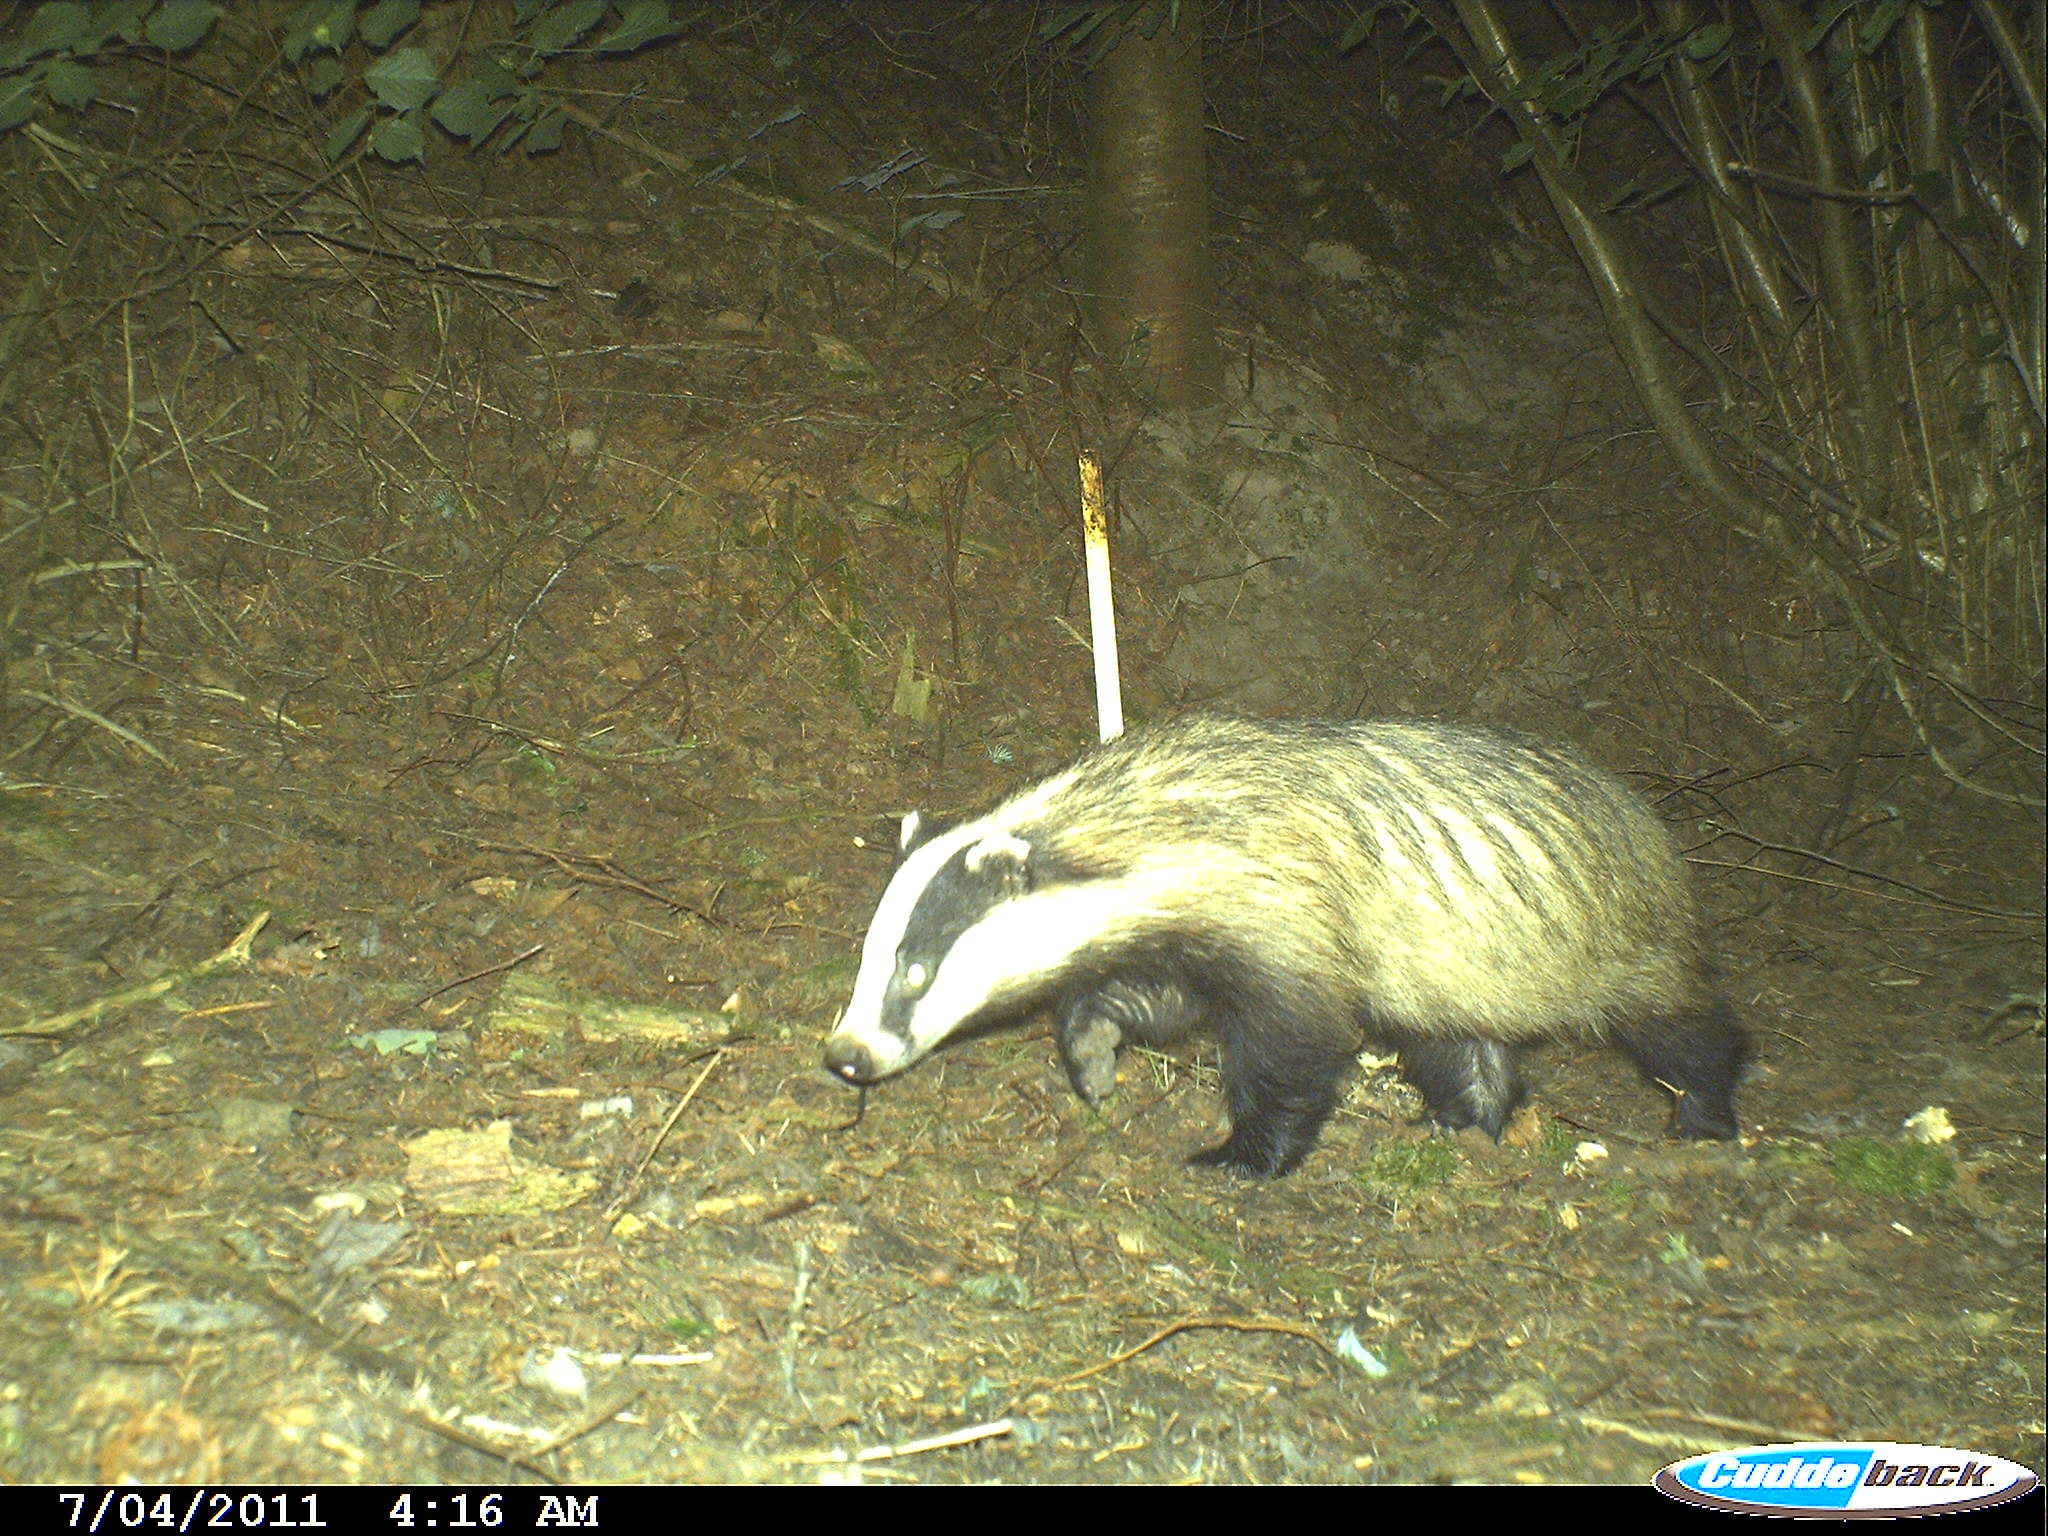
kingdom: Animalia
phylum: Chordata
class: Mammalia
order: Carnivora
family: Mustelidae
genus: Meles
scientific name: Meles meles
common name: Eurasian badger
